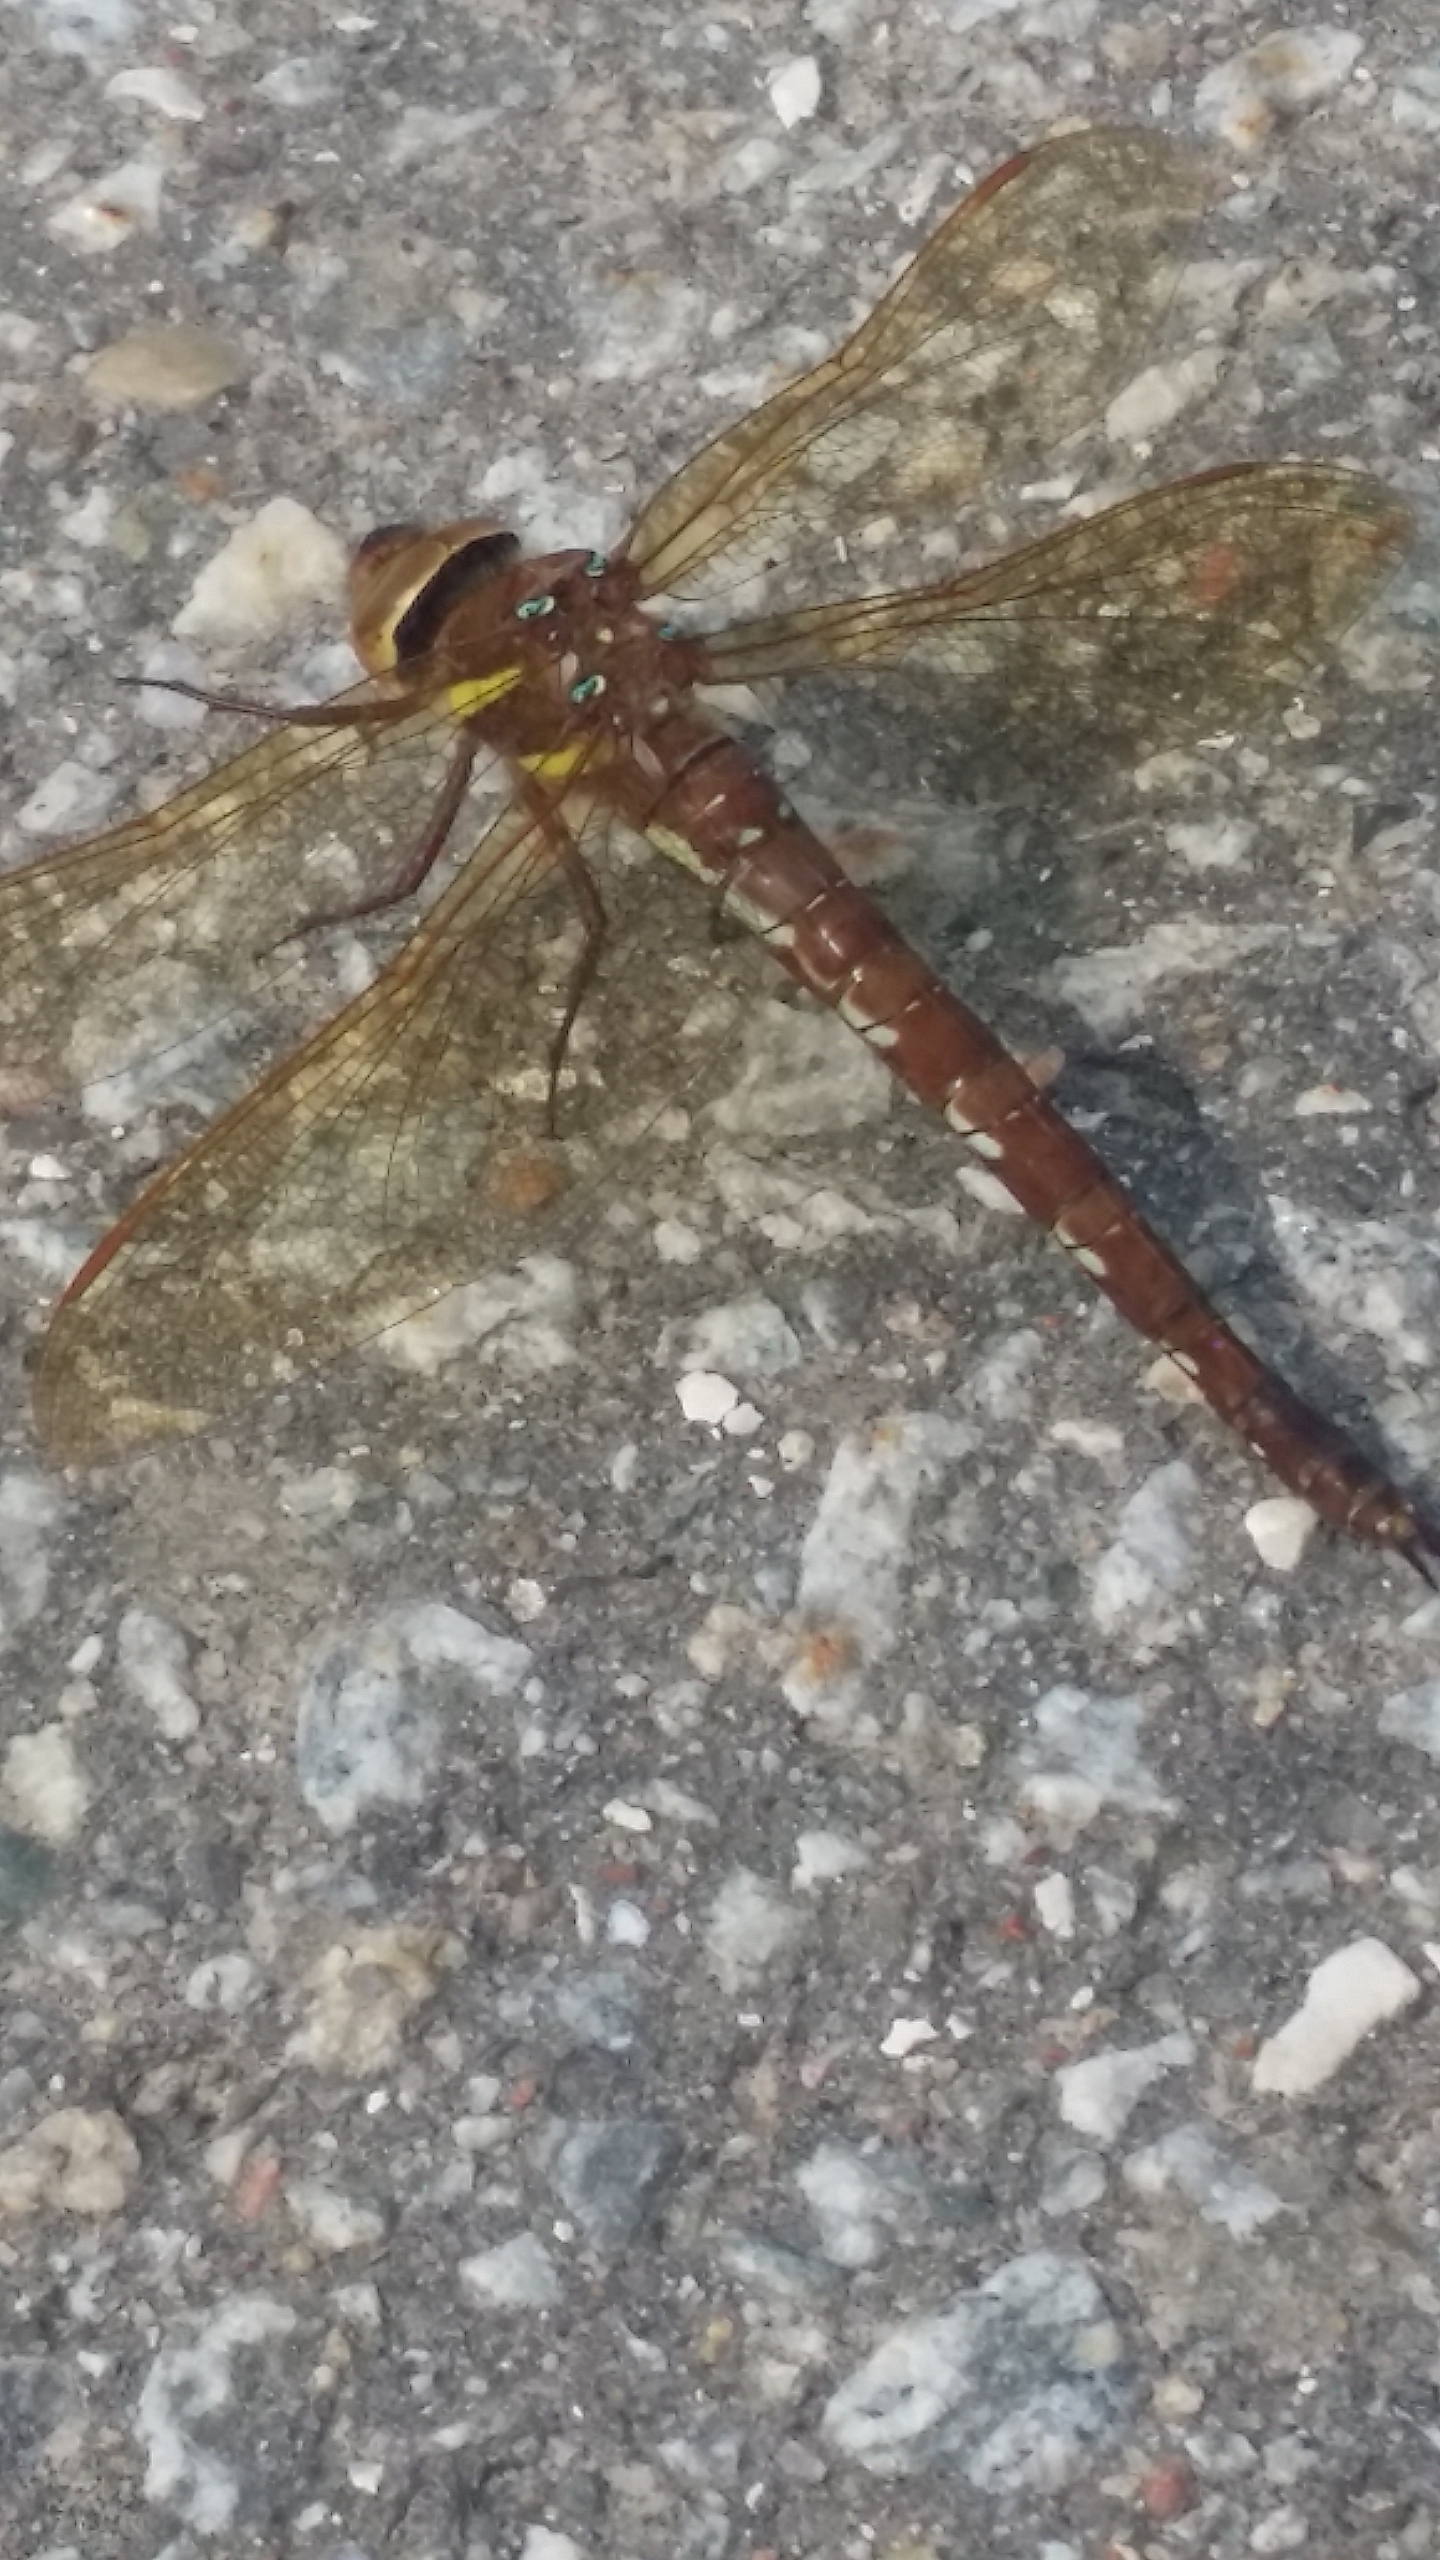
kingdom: Animalia
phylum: Arthropoda
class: Insecta
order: Odonata
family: Aeshnidae
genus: Aeshna
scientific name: Aeshna grandis
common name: Brun mosaikguldsmed
